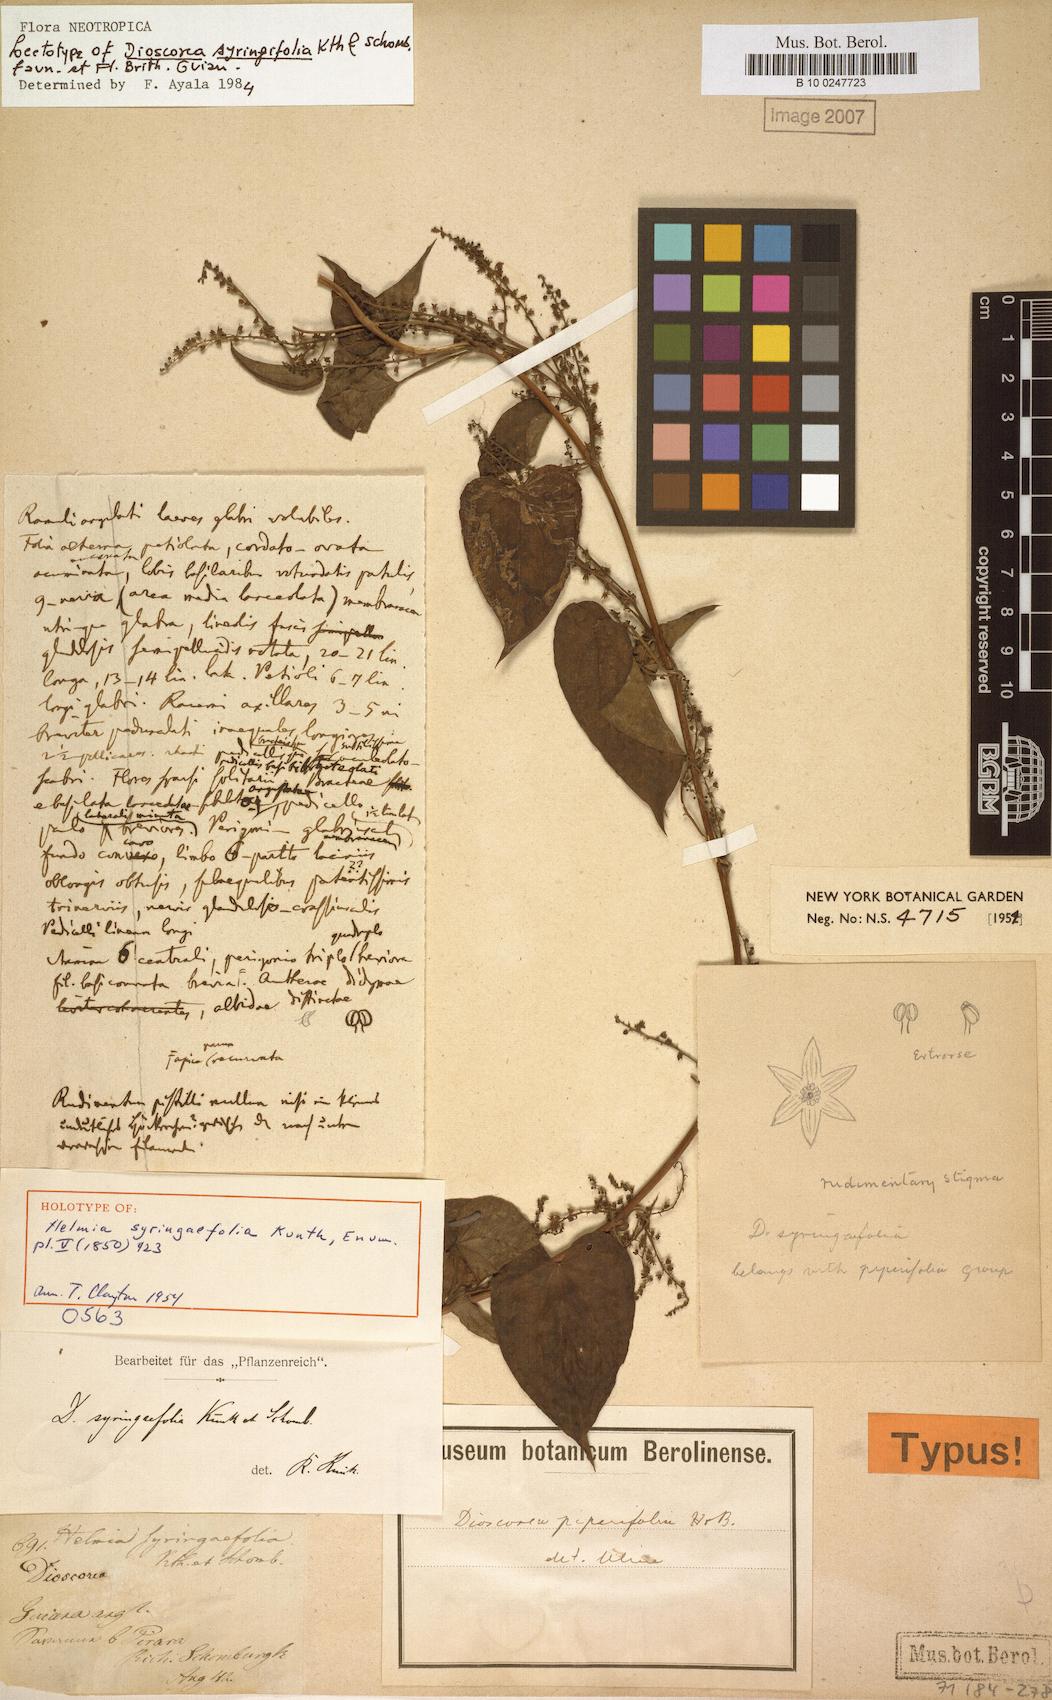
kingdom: Plantae
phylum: Tracheophyta
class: Liliopsida
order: Dioscoreales
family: Dioscoreaceae
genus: Dioscorea
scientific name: Dioscorea syringifolia
